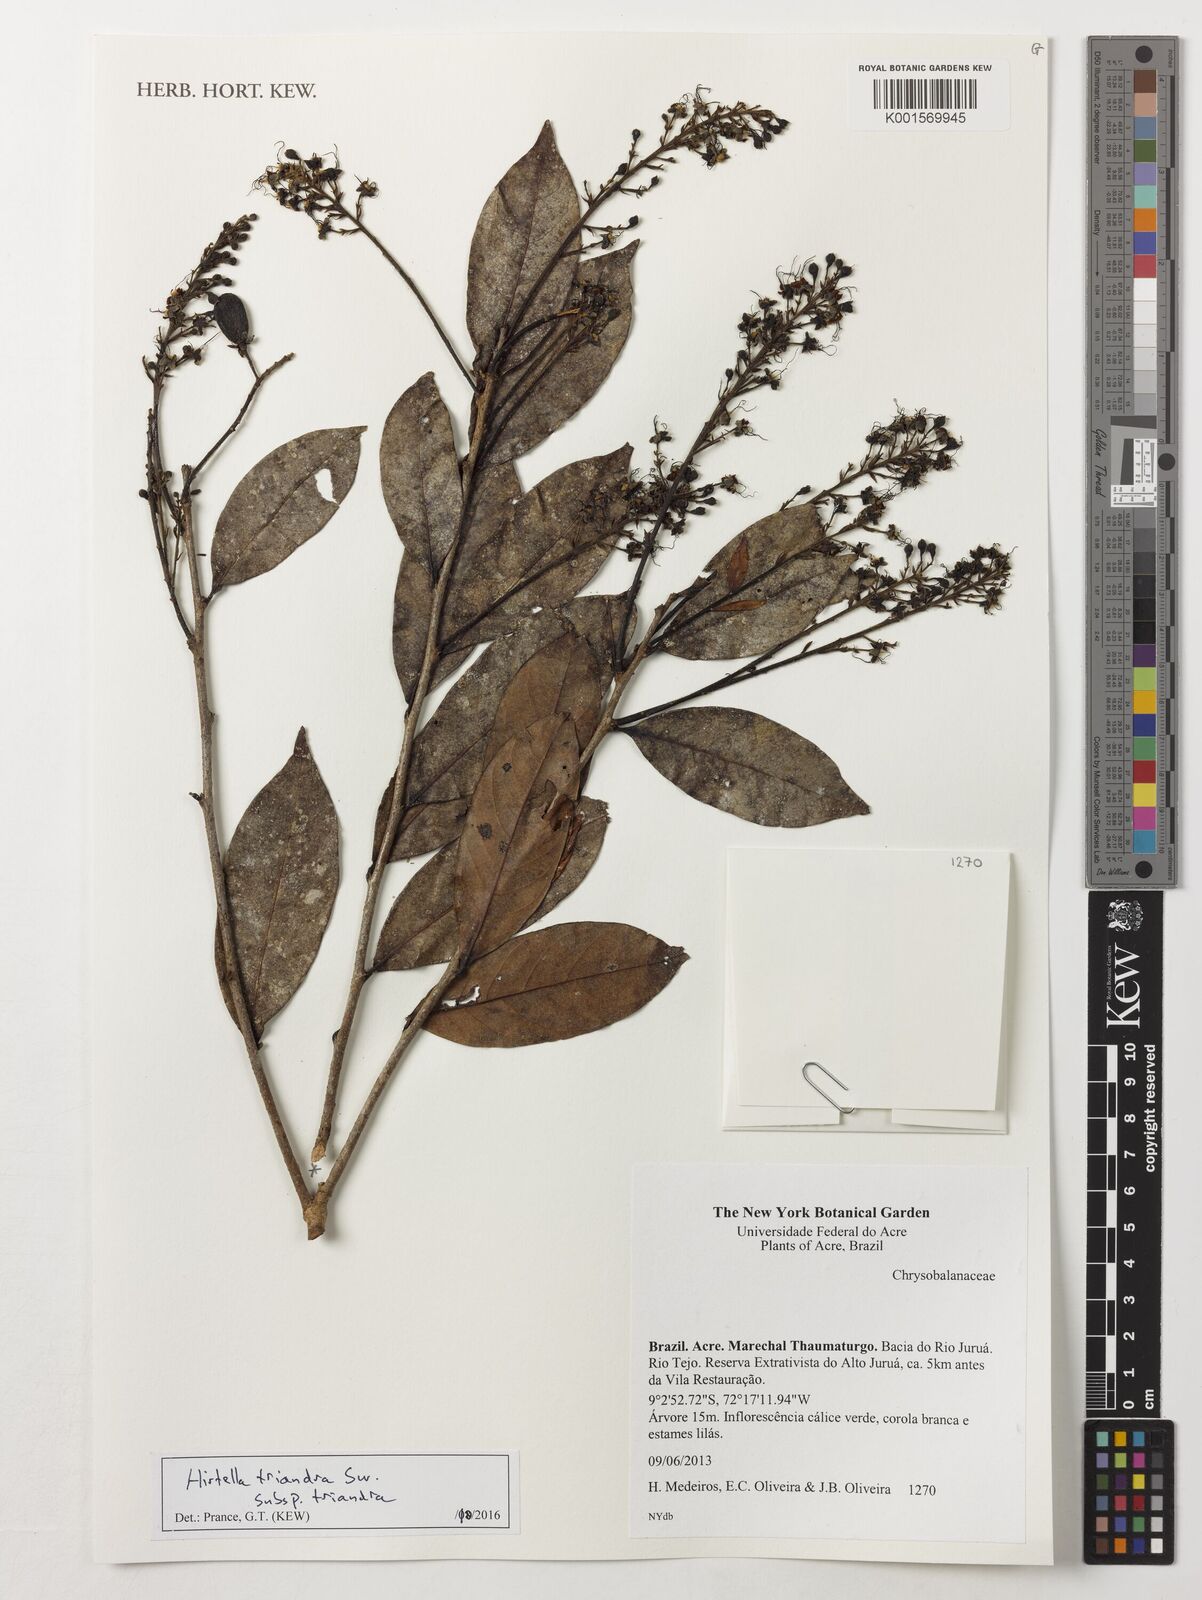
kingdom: Plantae
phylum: Tracheophyta
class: Magnoliopsida
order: Malpighiales
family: Chrysobalanaceae
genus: Hirtella
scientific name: Hirtella triandra
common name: Hairy plum
